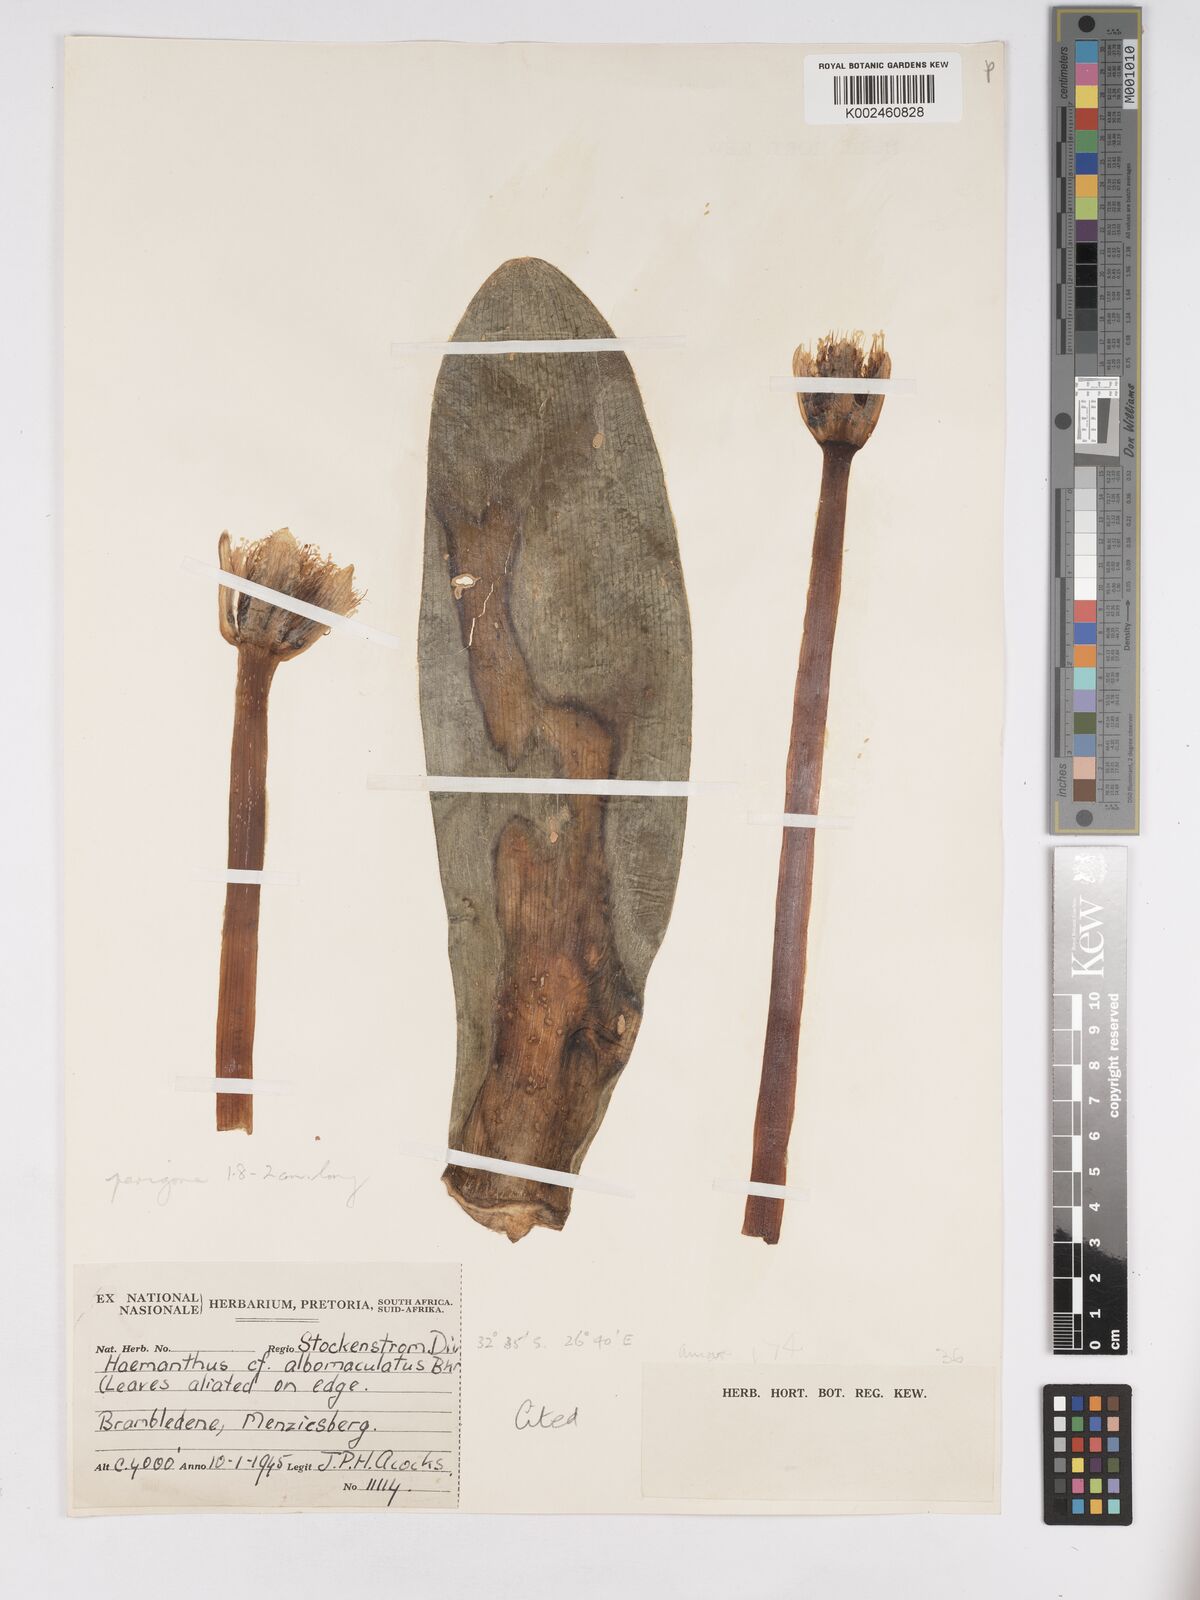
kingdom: Plantae
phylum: Tracheophyta
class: Liliopsida
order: Asparagales
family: Amaryllidaceae
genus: Haemanthus
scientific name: Haemanthus albiflos
